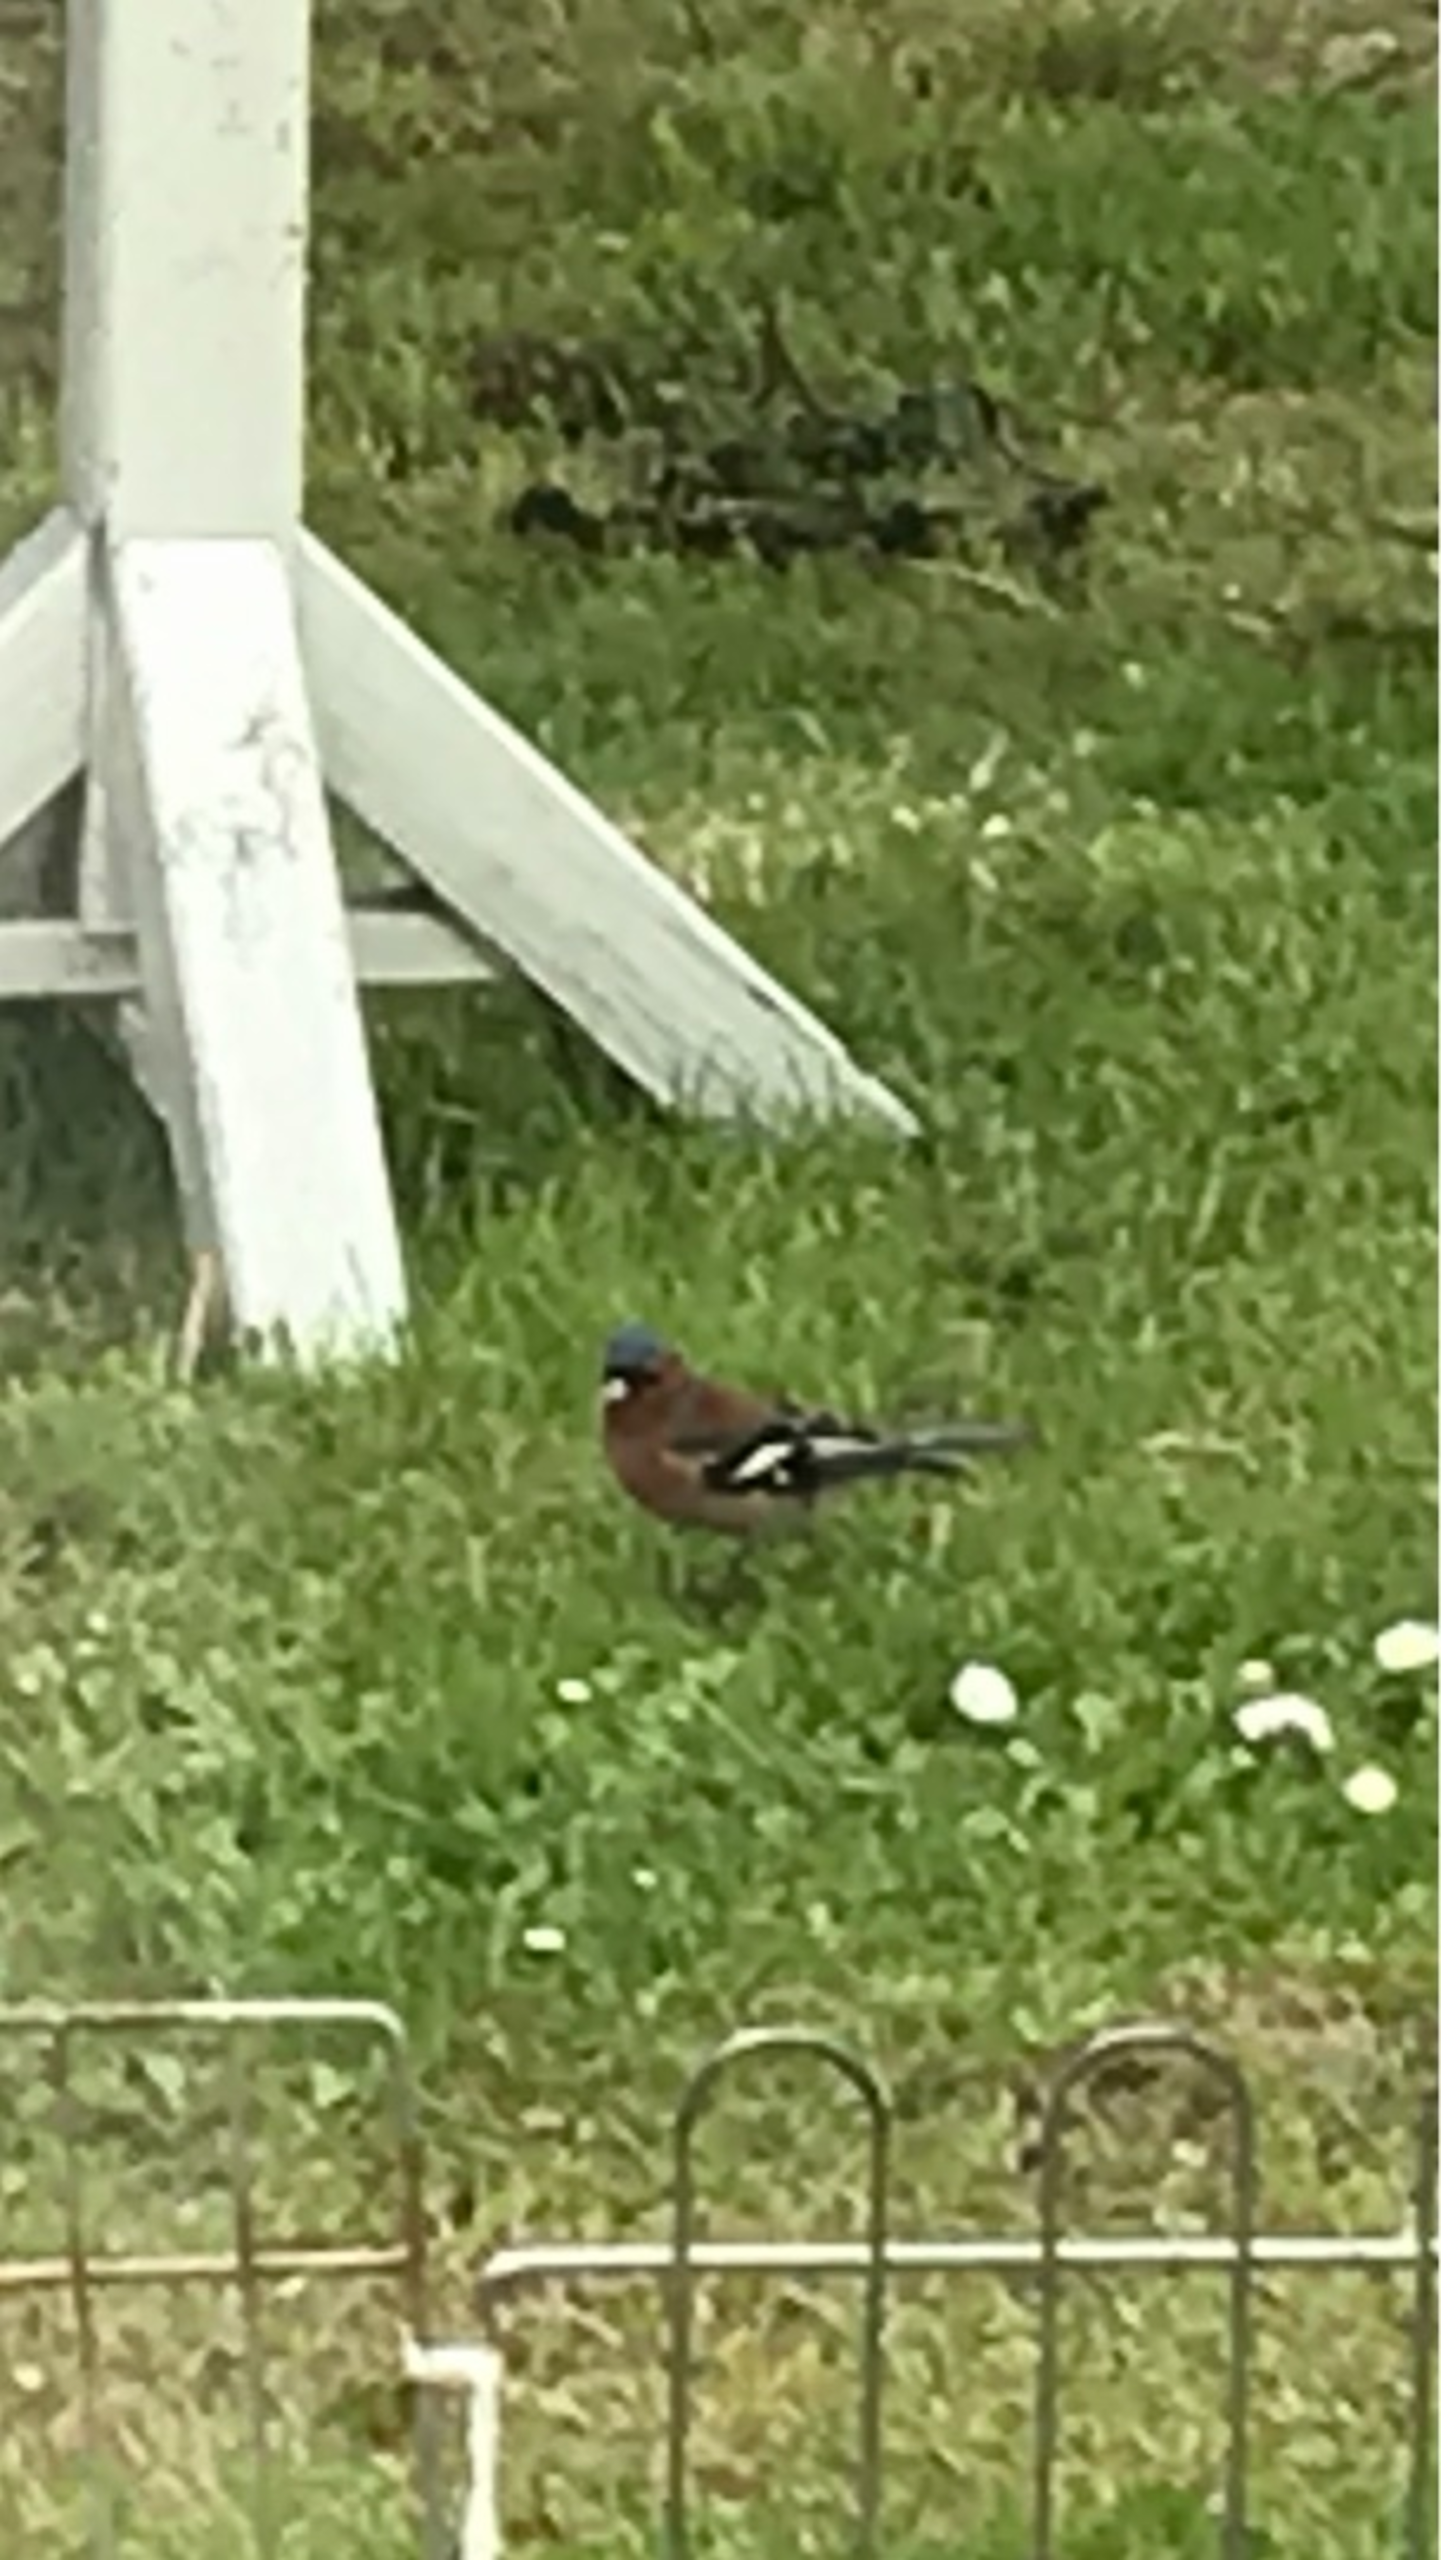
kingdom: Animalia
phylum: Chordata
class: Aves
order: Passeriformes
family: Fringillidae
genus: Fringilla
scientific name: Fringilla coelebs
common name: Bogfinke
